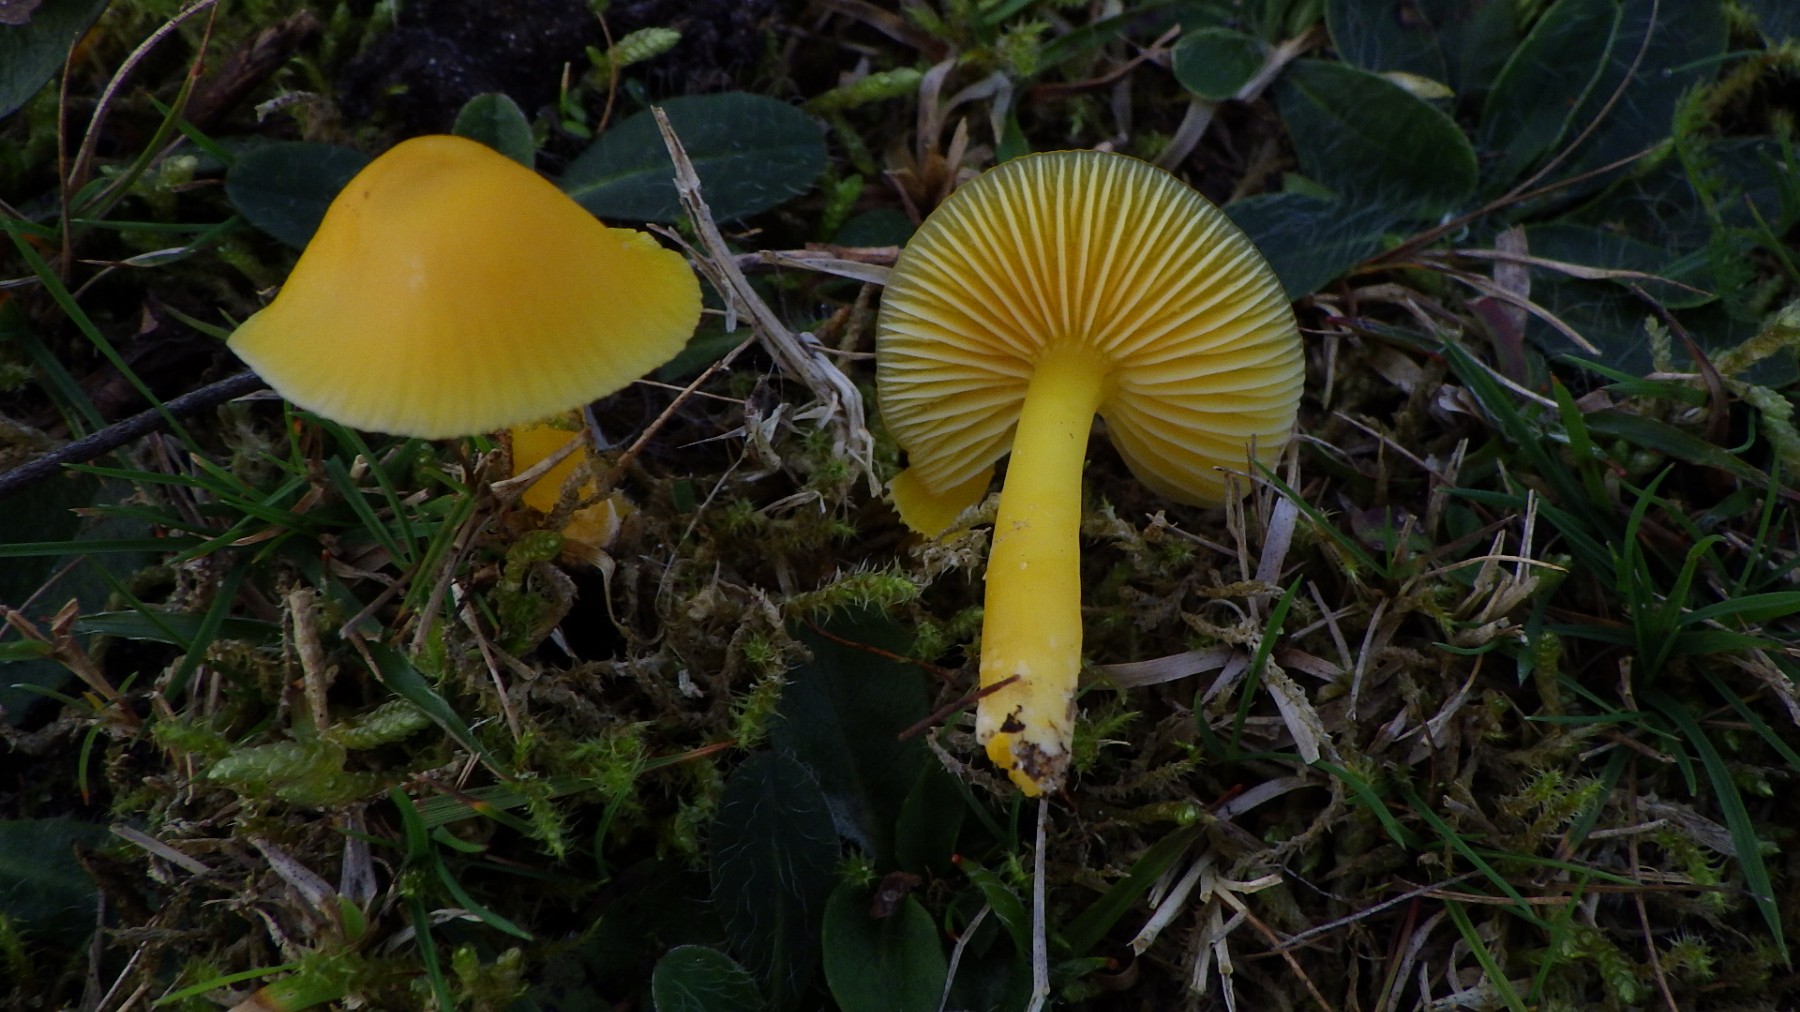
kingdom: Fungi
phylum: Basidiomycota
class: Agaricomycetes
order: Agaricales
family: Hygrophoraceae
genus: Hygrocybe
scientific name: Hygrocybe chlorophana
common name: gul vokshat
